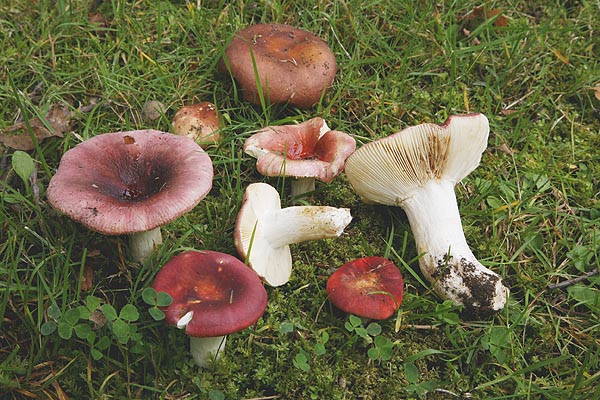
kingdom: Fungi
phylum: Basidiomycota
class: Agaricomycetes
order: Russulales
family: Russulaceae
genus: Russula
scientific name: Russula graveolens
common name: bugtet skørhat
